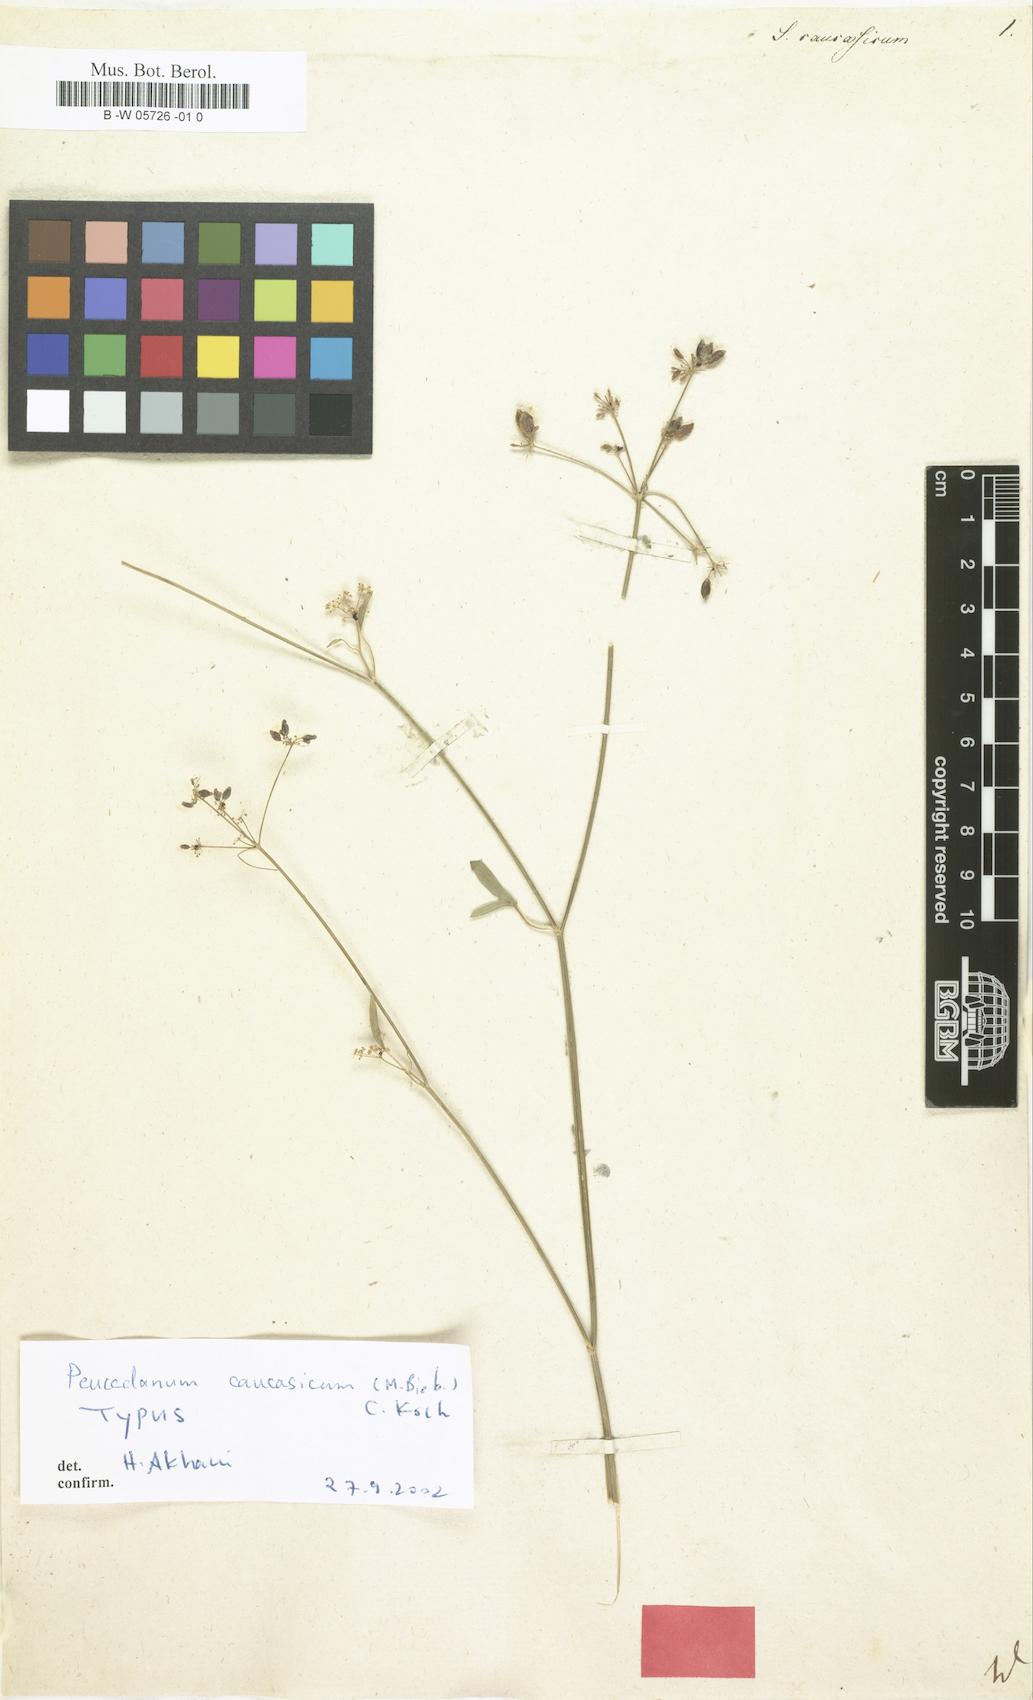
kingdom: Plantae
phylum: Tracheophyta
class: Magnoliopsida
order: Apiales
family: Apiaceae
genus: Dichoropetalum
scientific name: Dichoropetalum caucasicum
